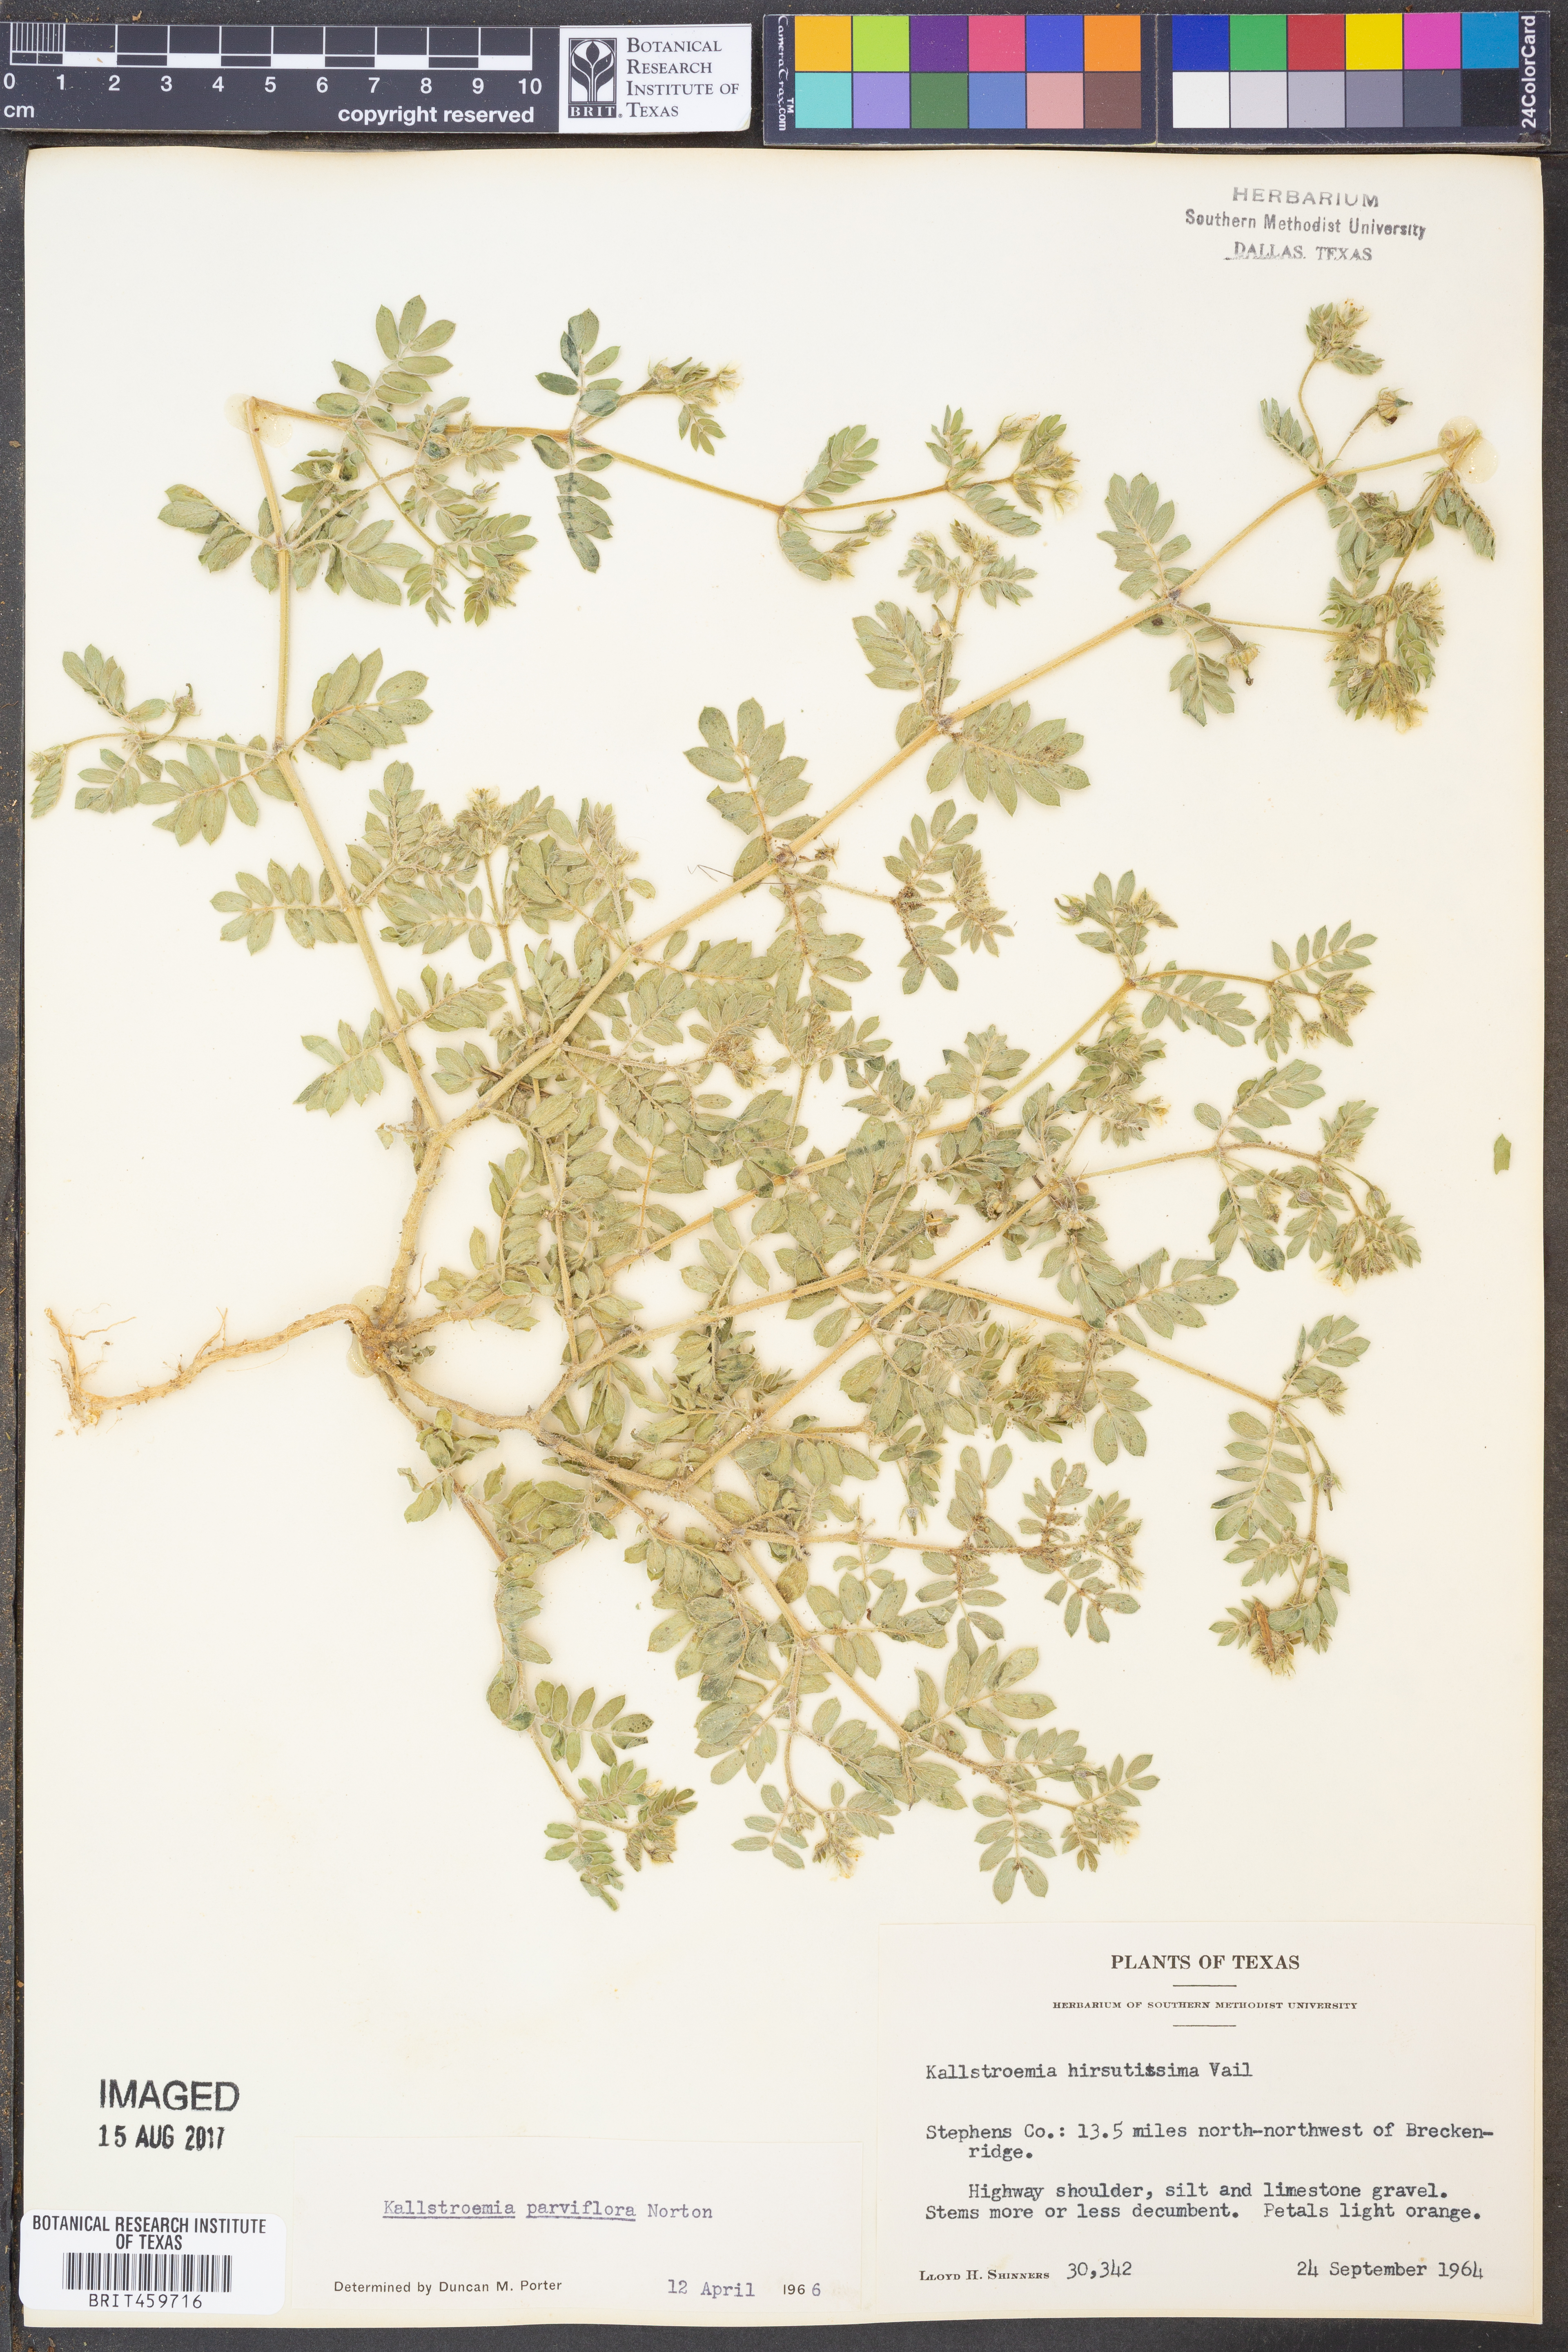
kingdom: Plantae
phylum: Tracheophyta
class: Magnoliopsida
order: Zygophyllales
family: Zygophyllaceae
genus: Kallstroemia
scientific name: Kallstroemia parviflora
